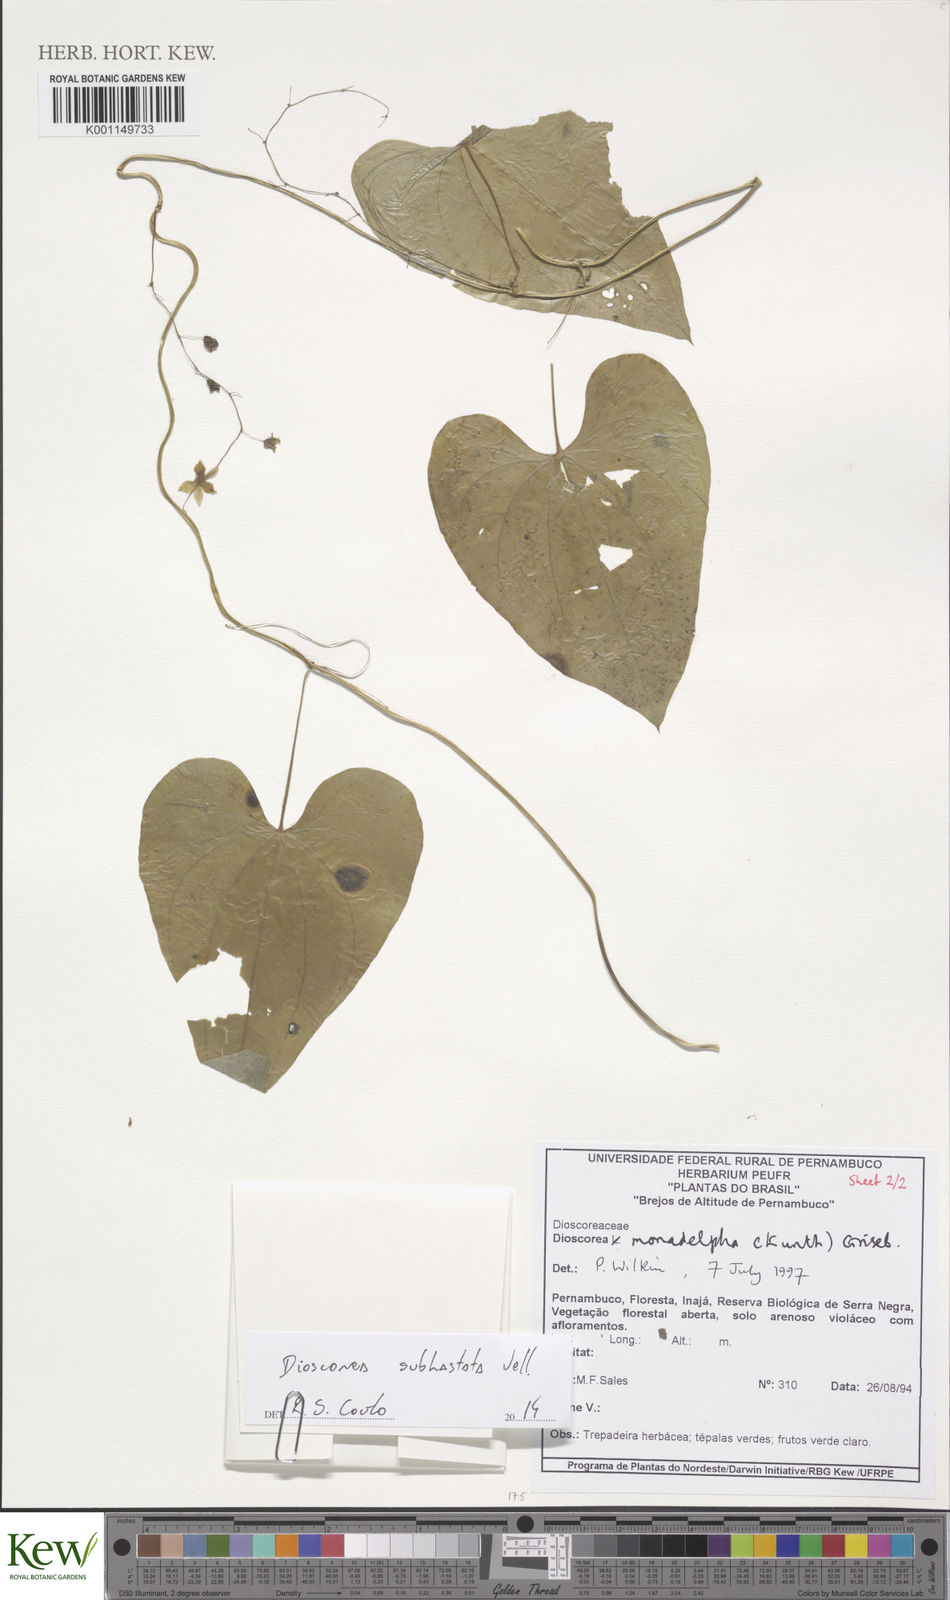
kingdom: Plantae
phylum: Tracheophyta
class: Liliopsida
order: Dioscoreales
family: Dioscoreaceae
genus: Dioscorea
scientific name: Dioscorea subhastata
